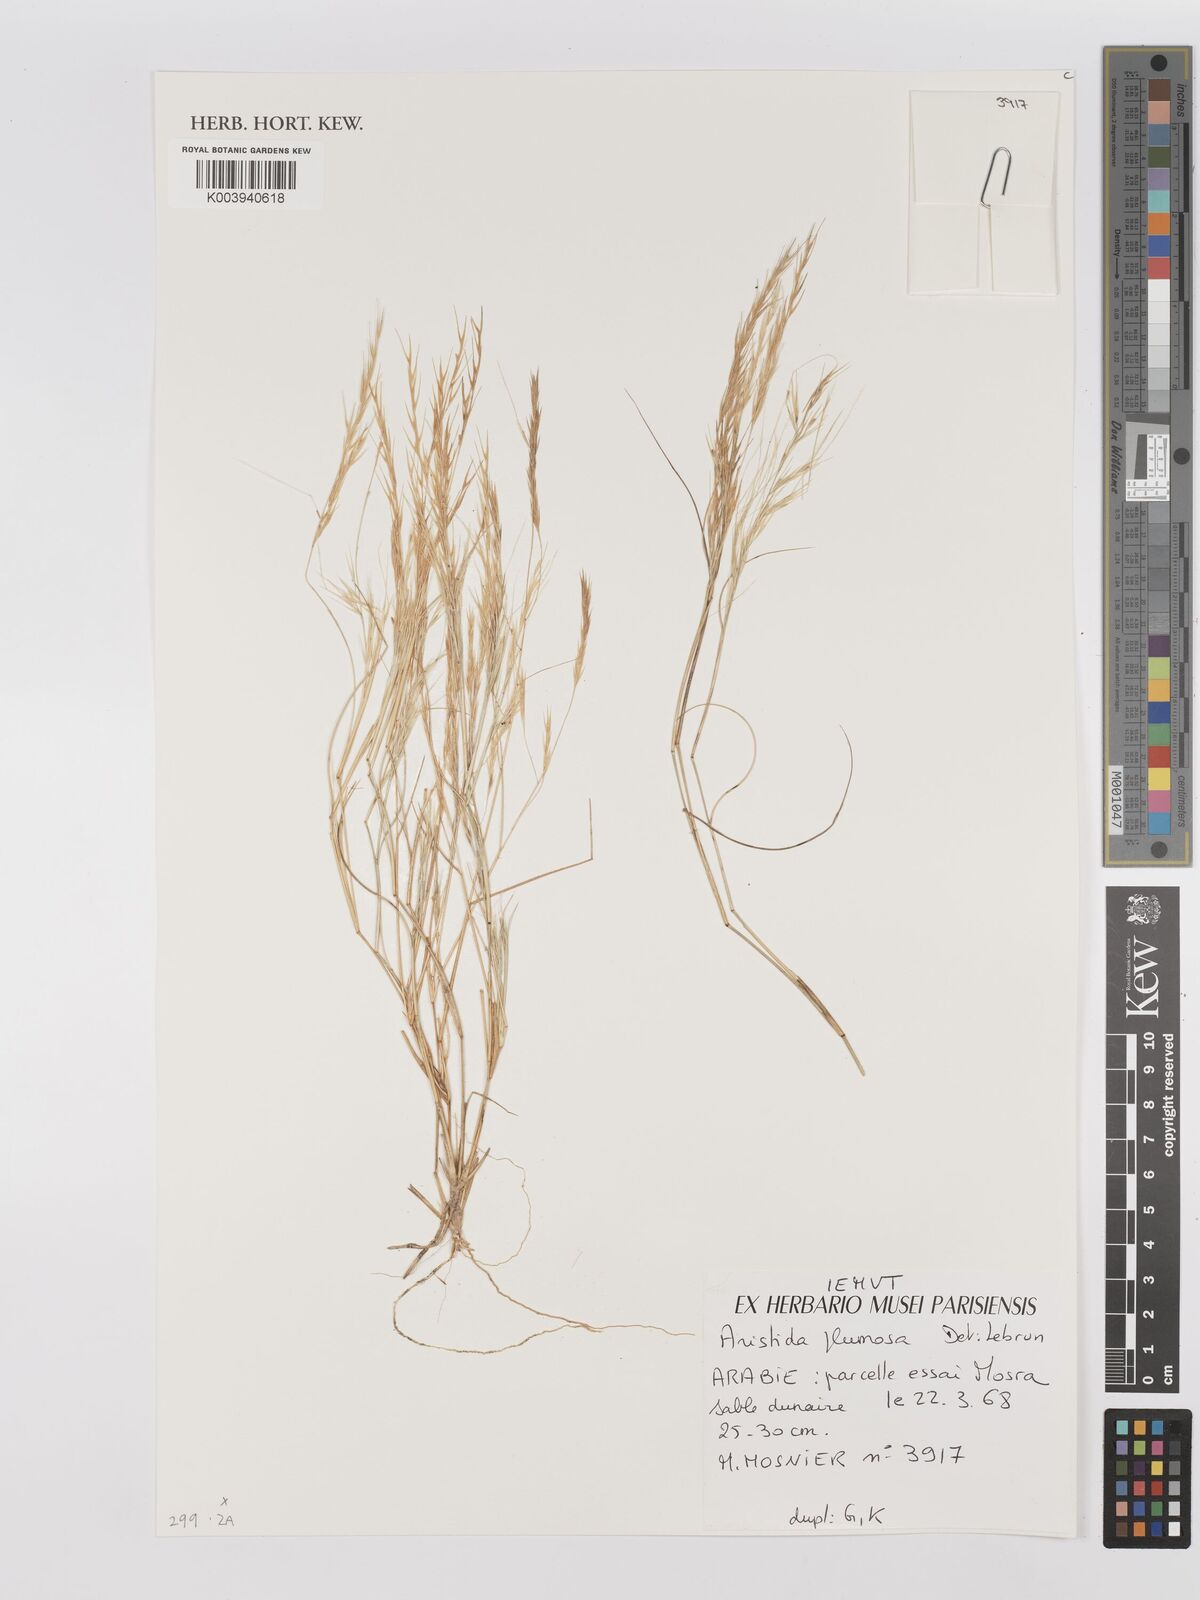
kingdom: Plantae
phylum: Tracheophyta
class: Liliopsida
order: Poales
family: Poaceae
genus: Stipagrostis
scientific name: Stipagrostis plumosa
